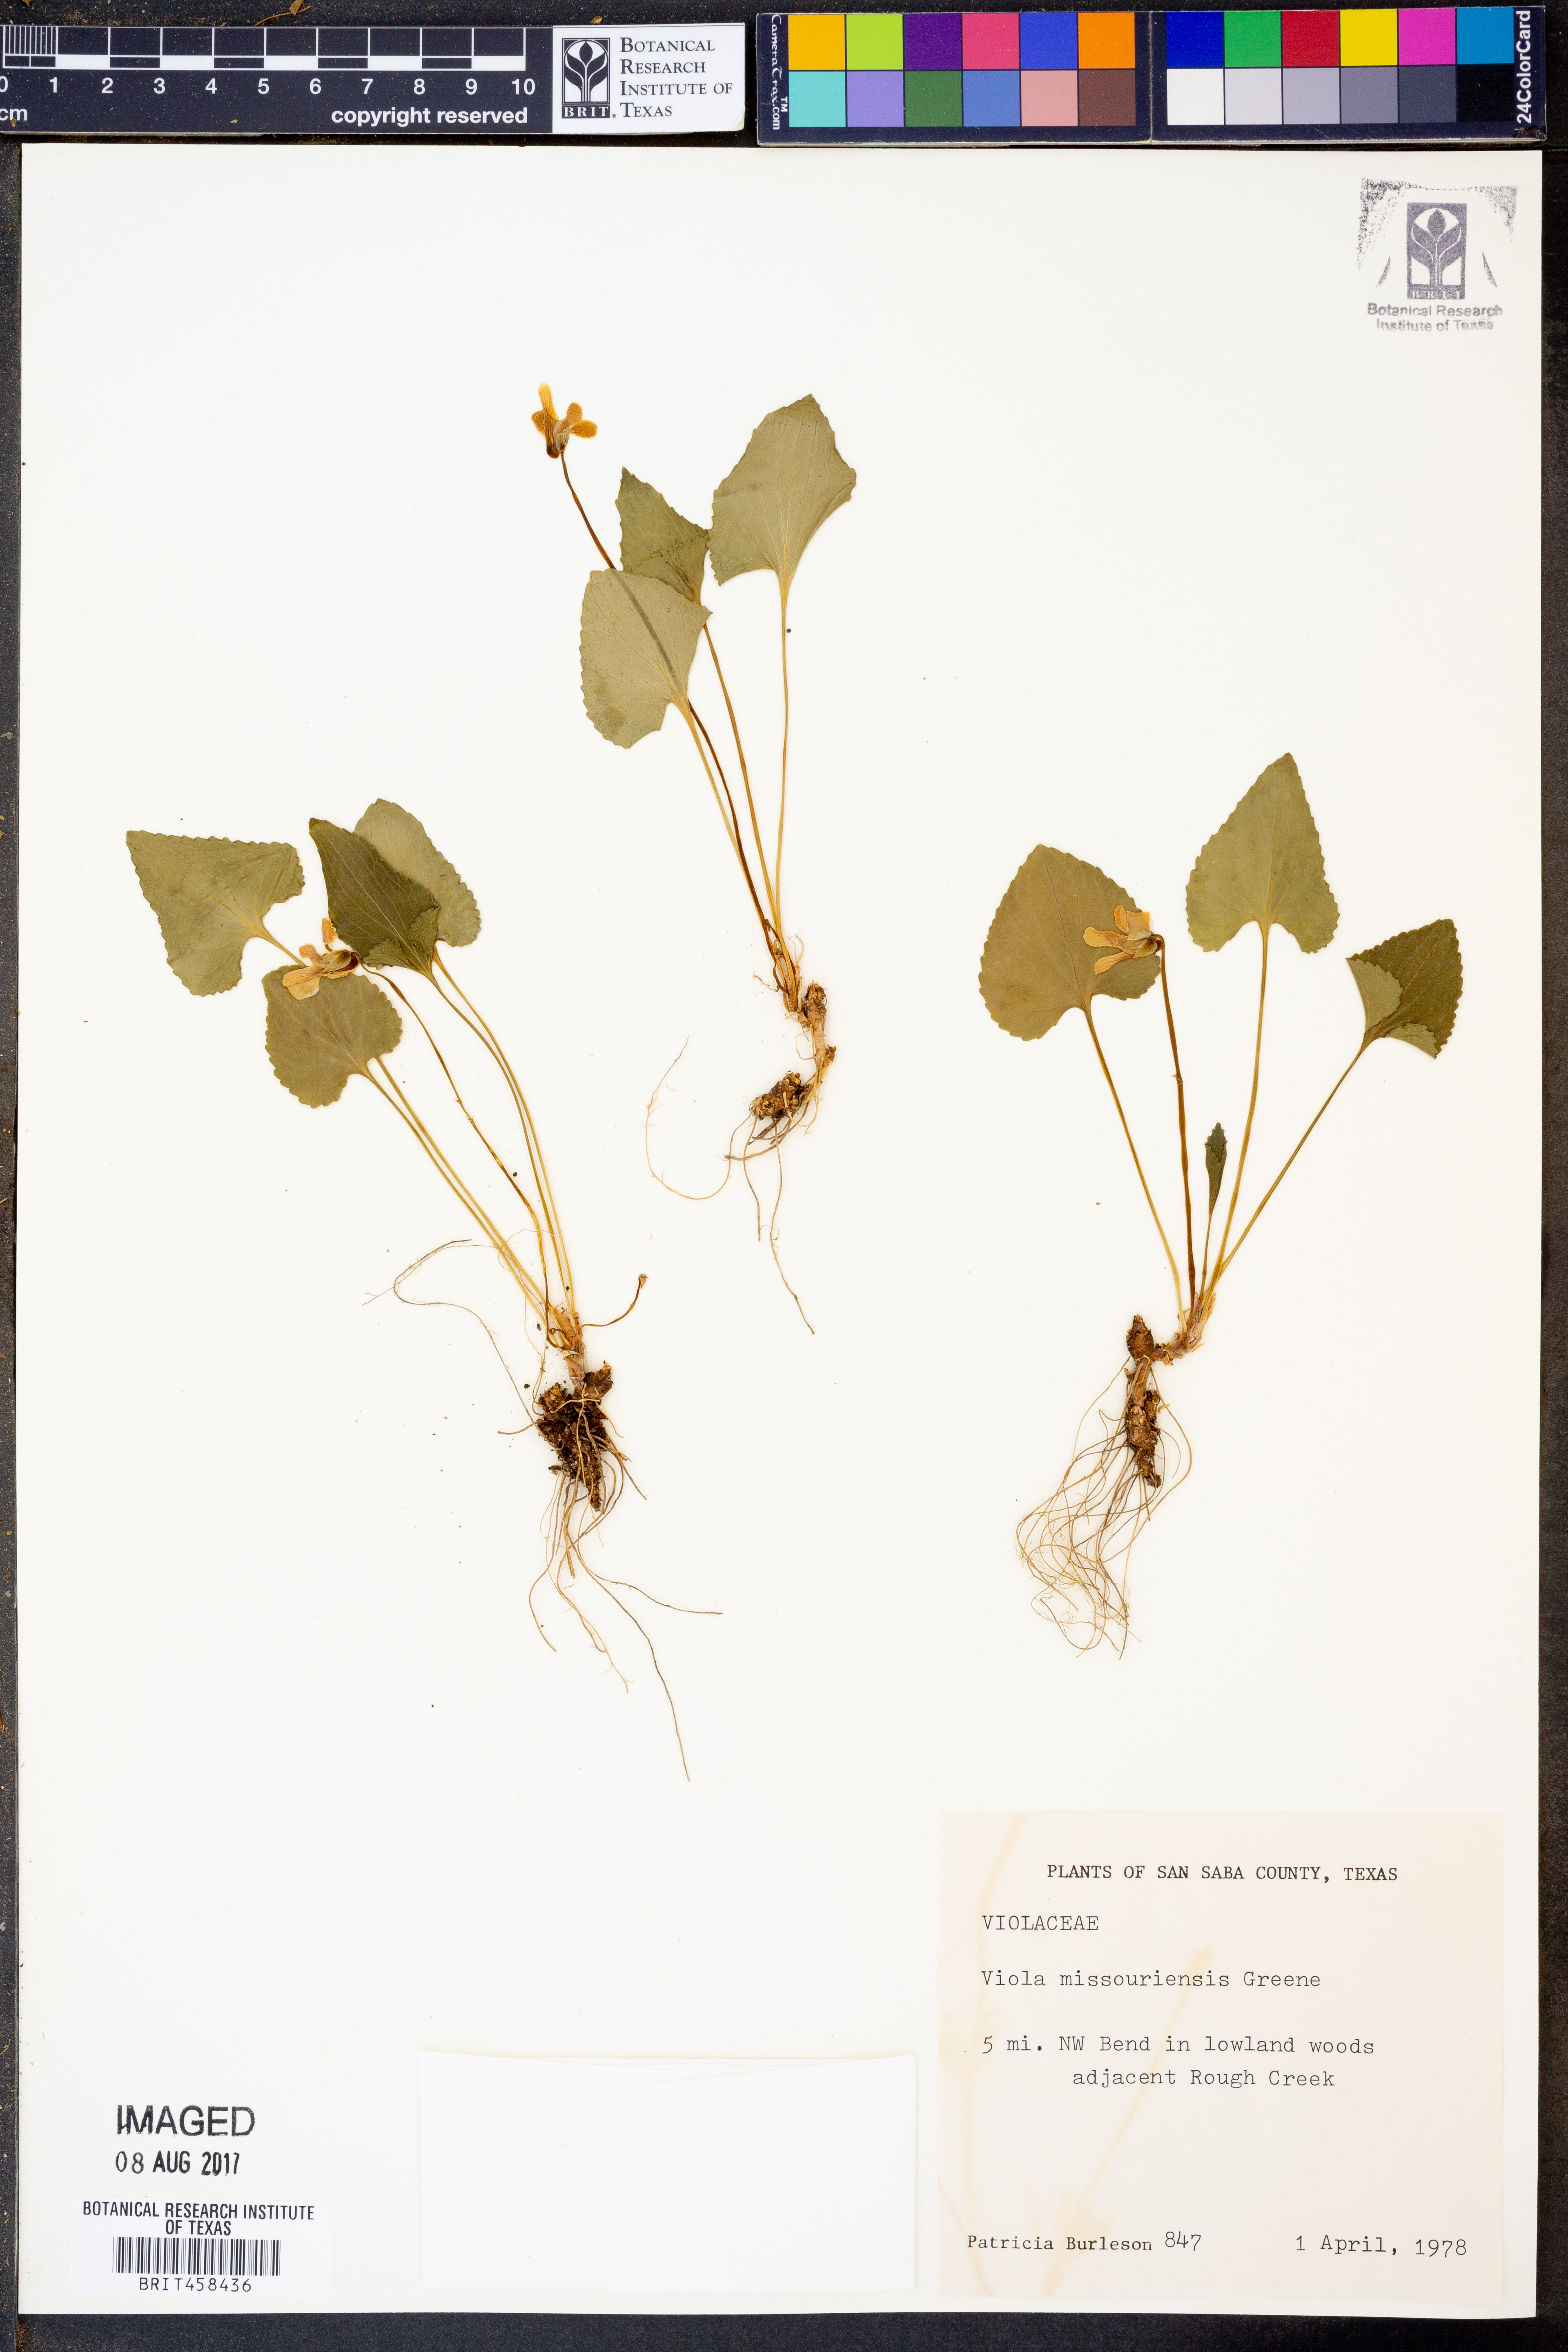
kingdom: Plantae
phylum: Tracheophyta
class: Magnoliopsida
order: Malpighiales
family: Violaceae
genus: Viola
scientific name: Viola missouriensis
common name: Missouri violet
